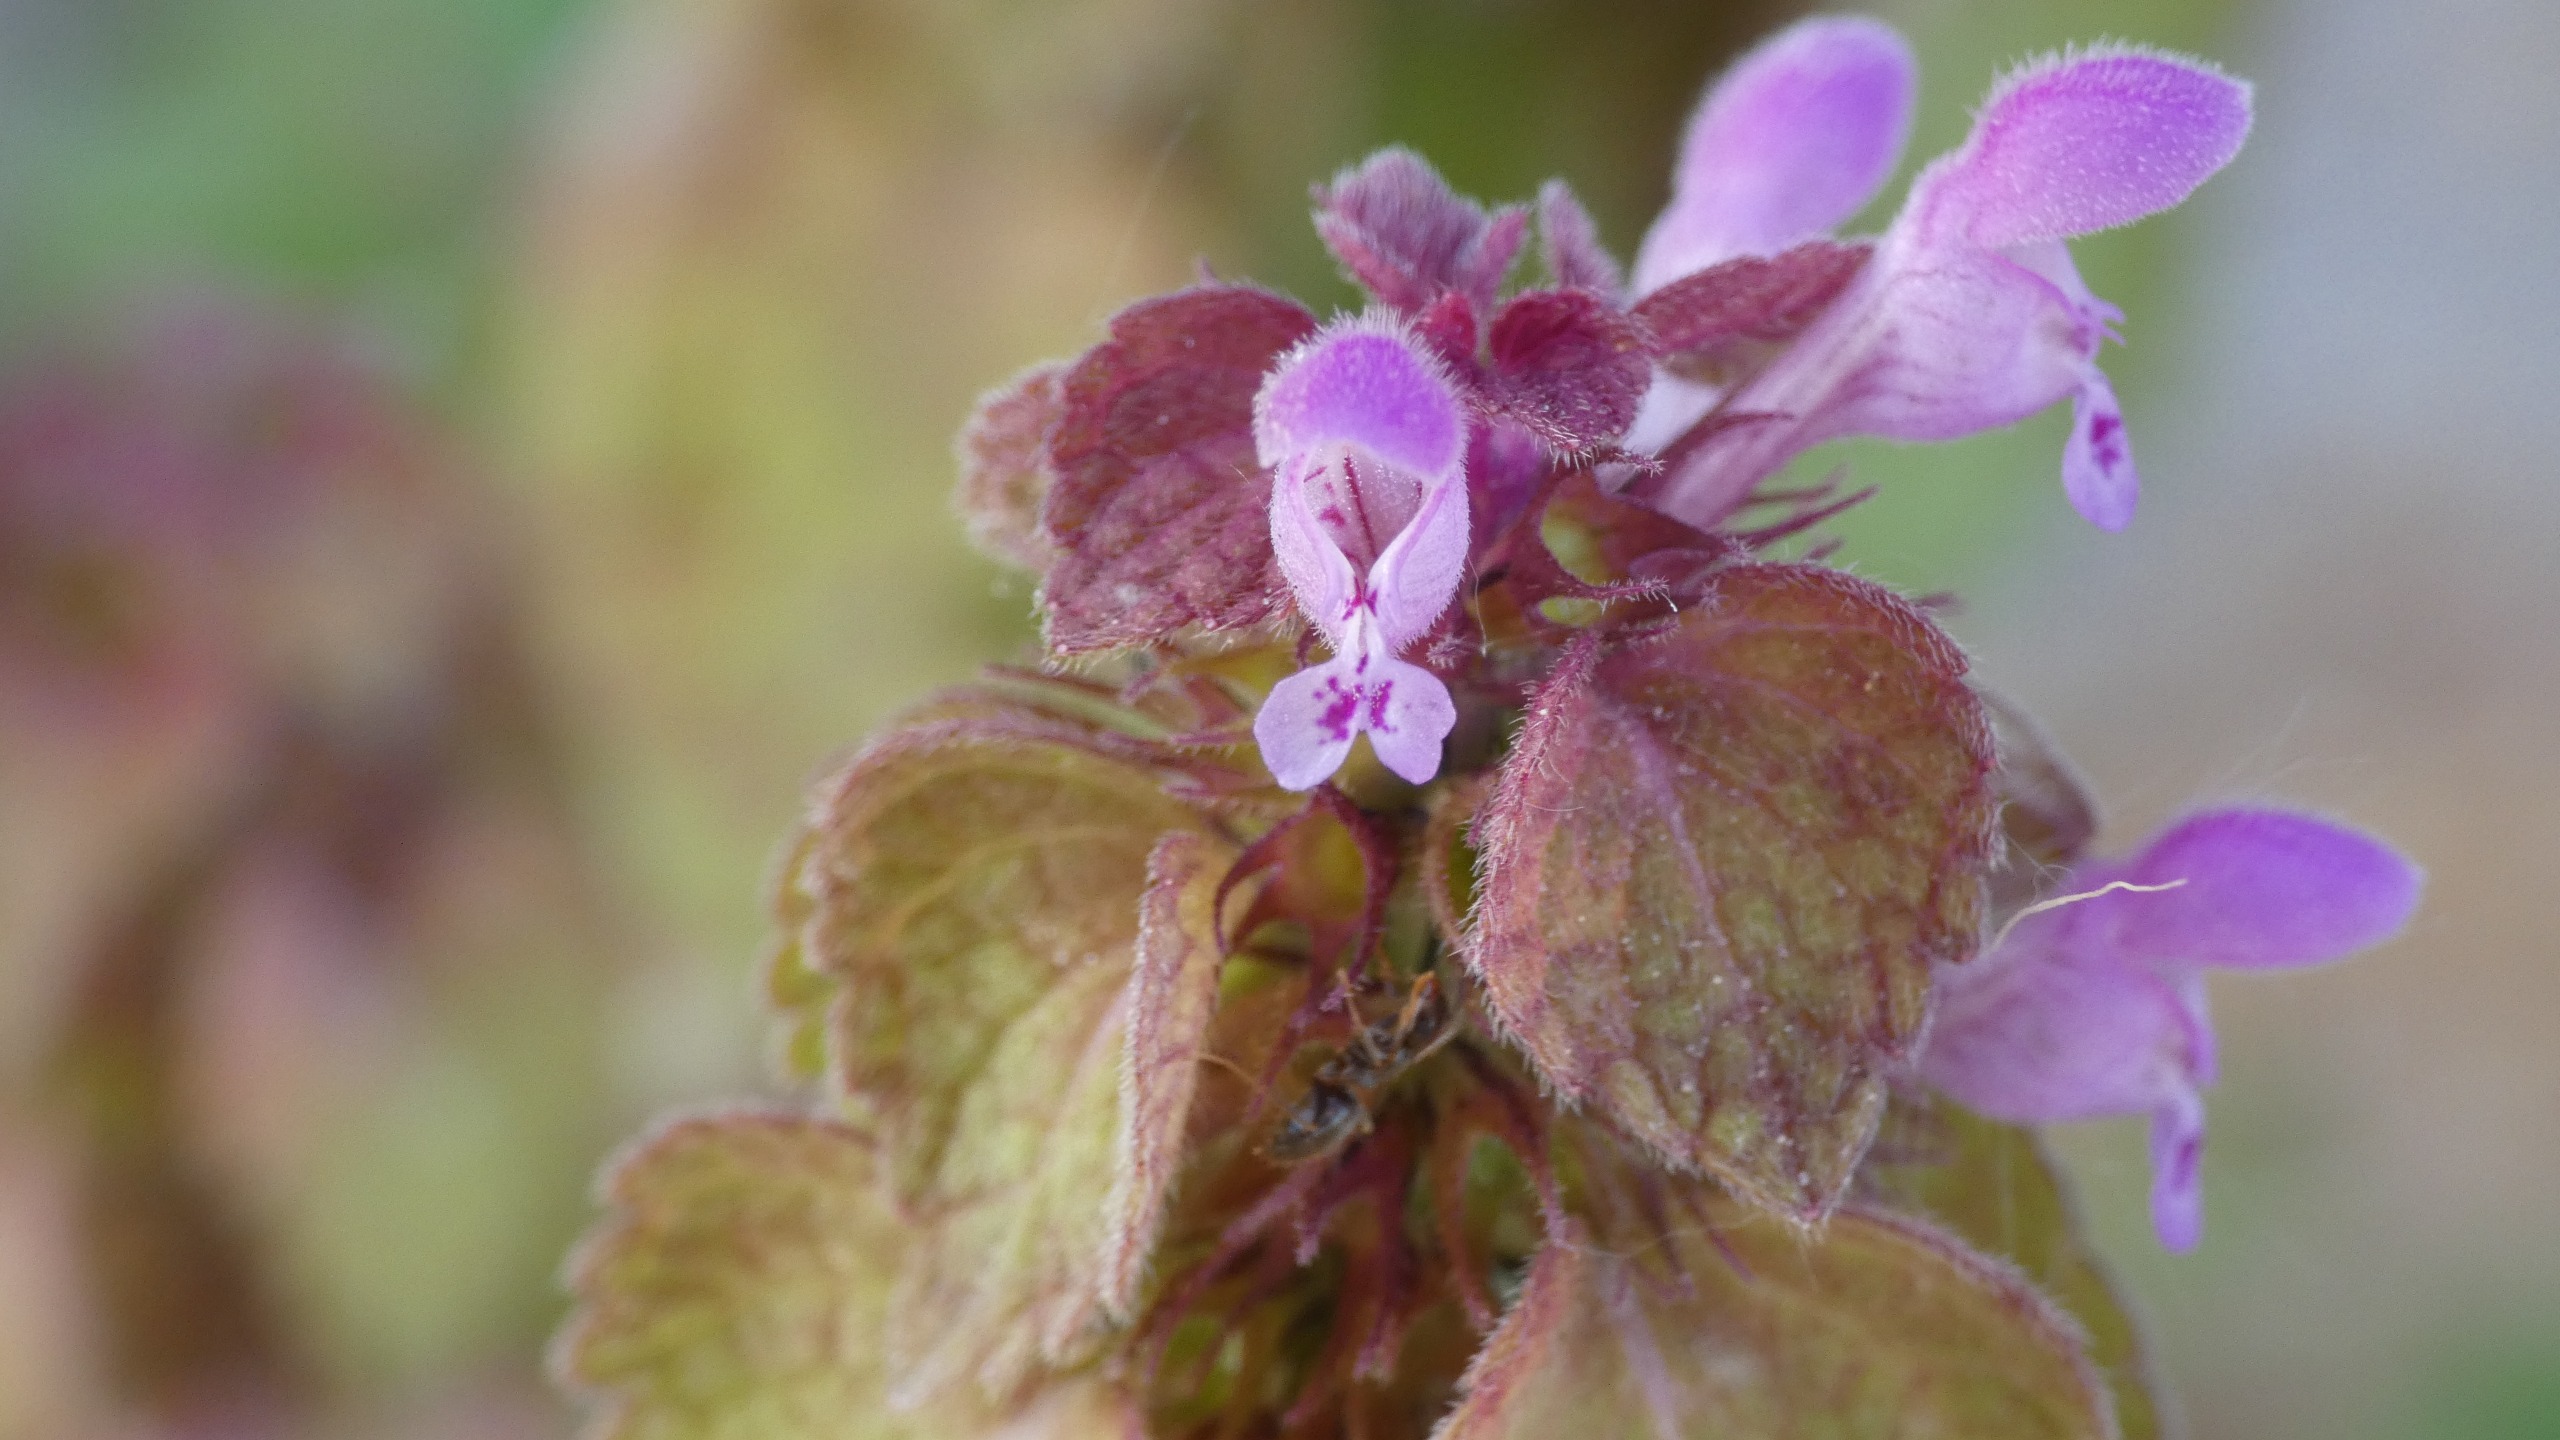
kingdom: Plantae
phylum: Tracheophyta
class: Magnoliopsida
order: Lamiales
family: Lamiaceae
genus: Lamium
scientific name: Lamium purpureum
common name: Rød tvetand
